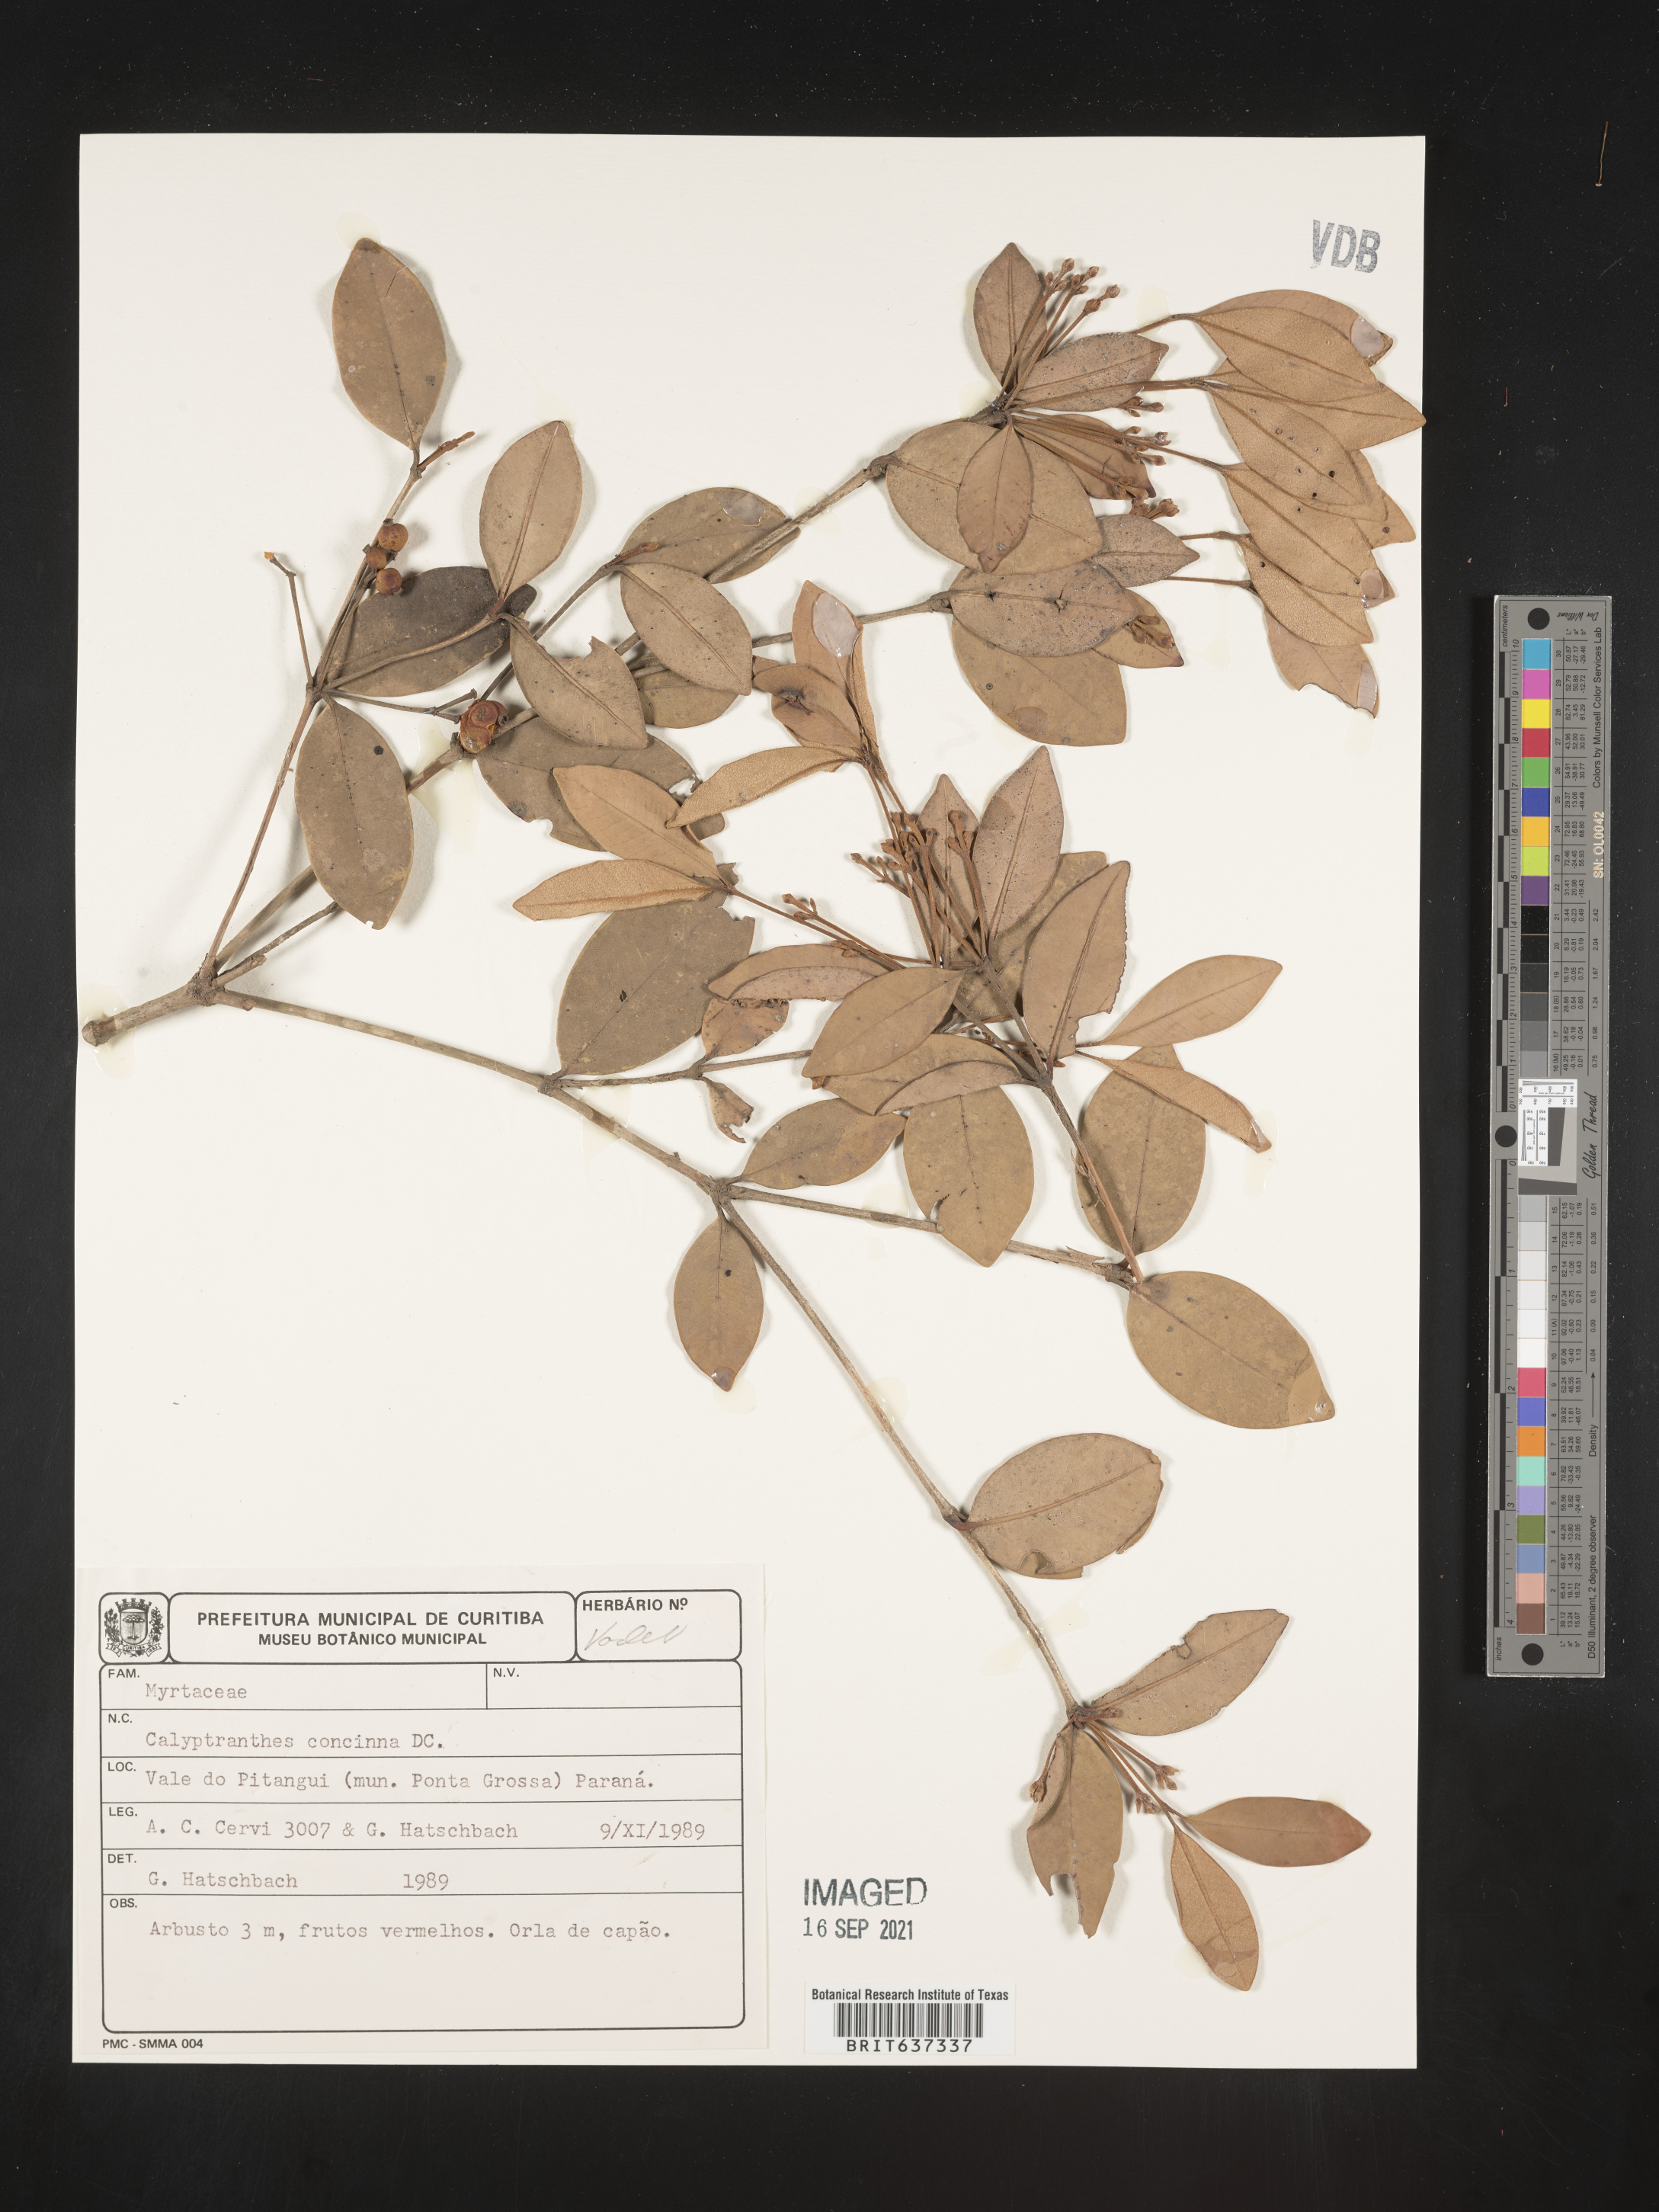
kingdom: Plantae
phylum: Tracheophyta
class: Magnoliopsida
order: Myrtales
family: Myrtaceae
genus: Calyptranthes
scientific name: Calyptranthes
